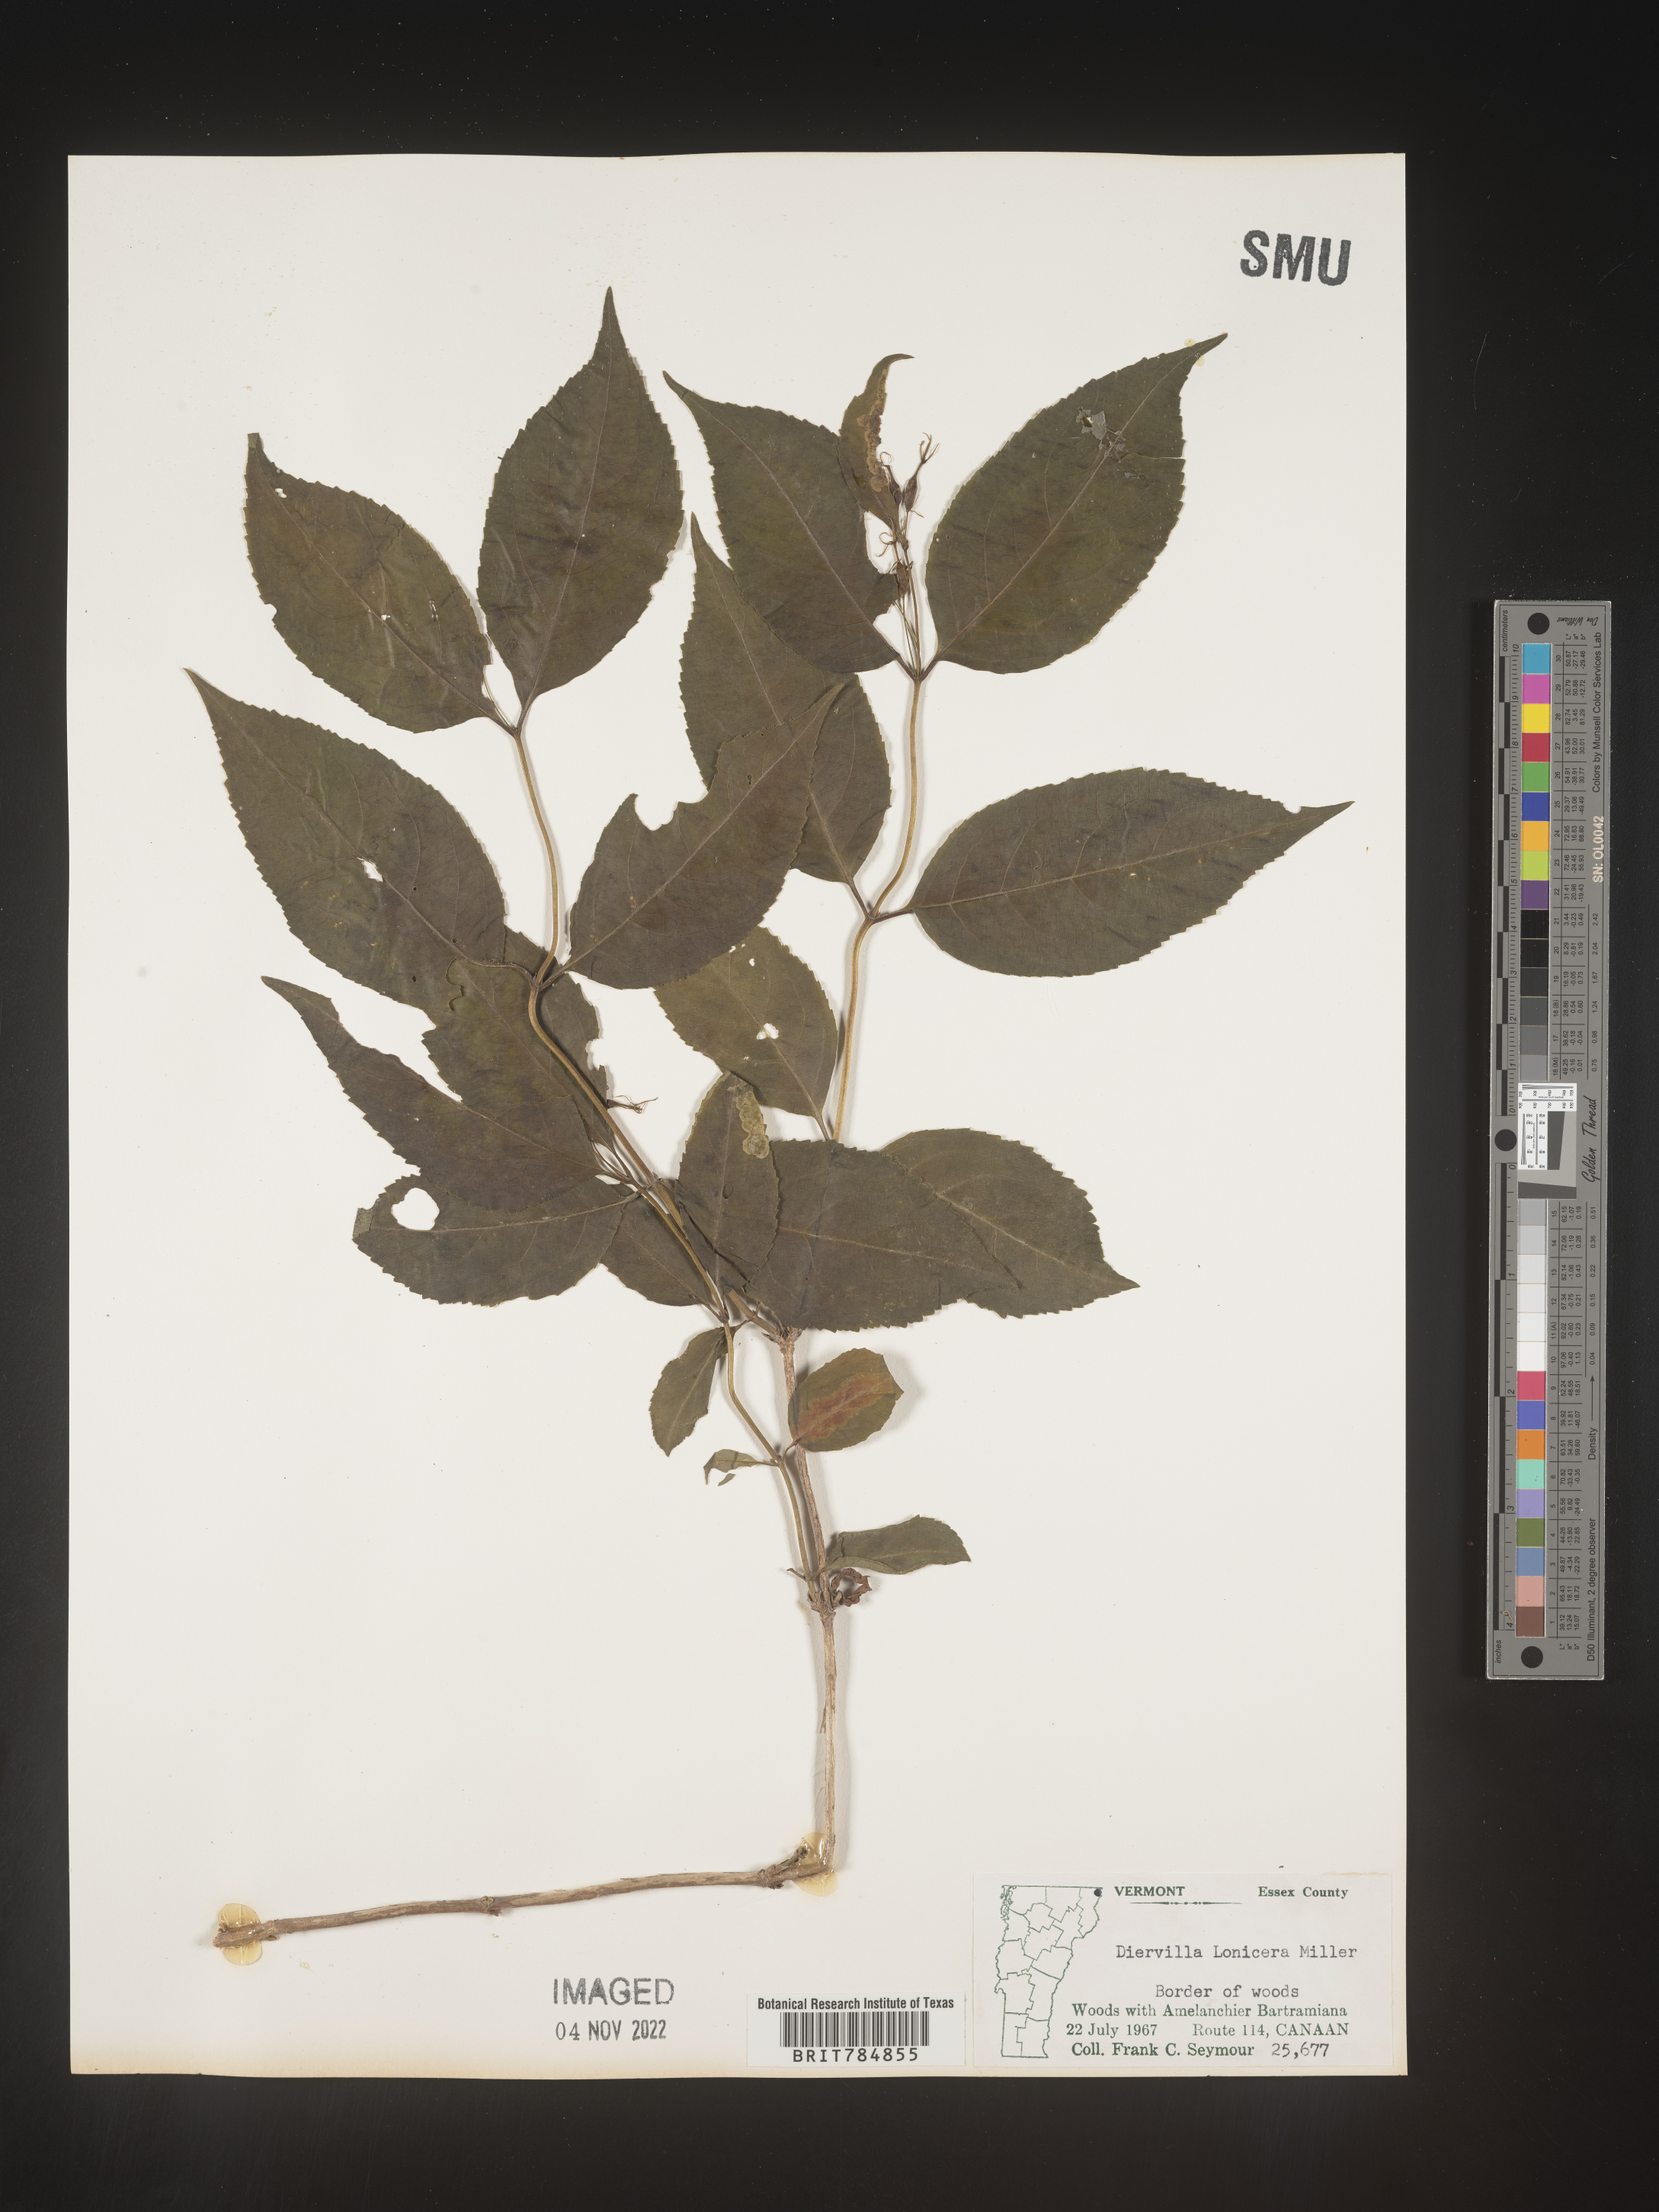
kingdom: Plantae
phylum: Tracheophyta
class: Magnoliopsida
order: Dipsacales
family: Caprifoliaceae
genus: Diervilla
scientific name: Diervilla lonicera
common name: Bush-honeysuckle
